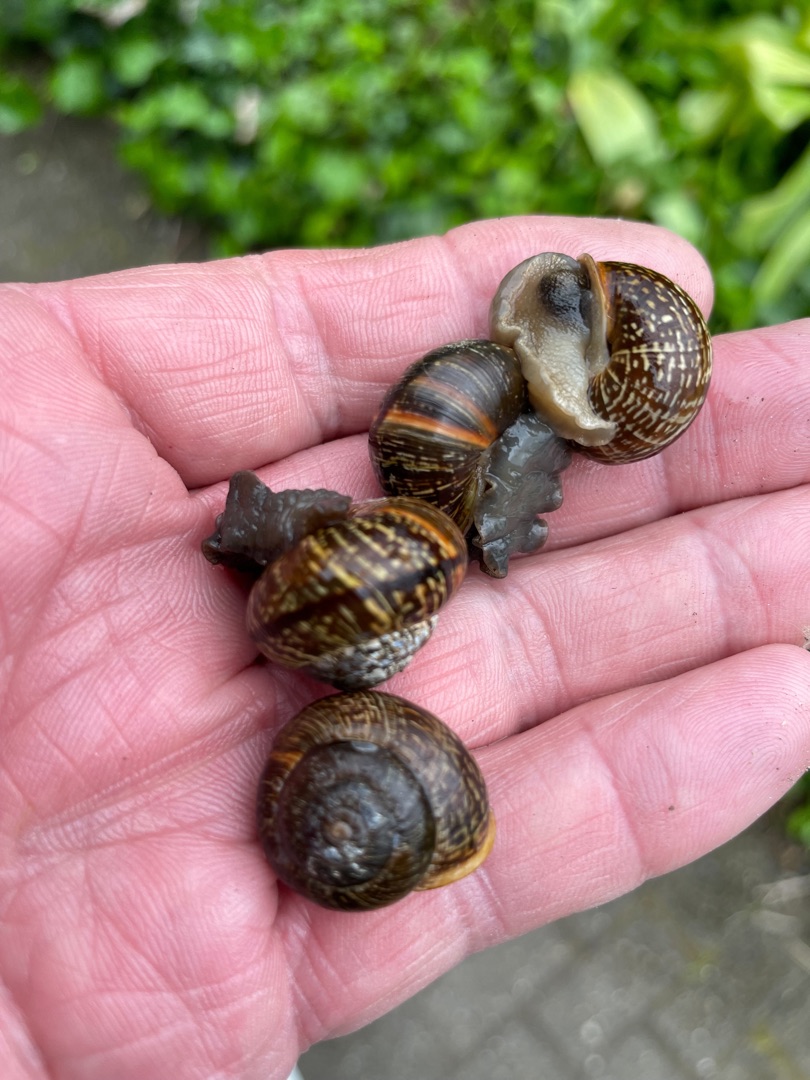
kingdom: Animalia
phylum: Mollusca
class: Gastropoda
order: Stylommatophora
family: Helicidae
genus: Arianta
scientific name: Arianta arbustorum
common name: Kratsnegl
